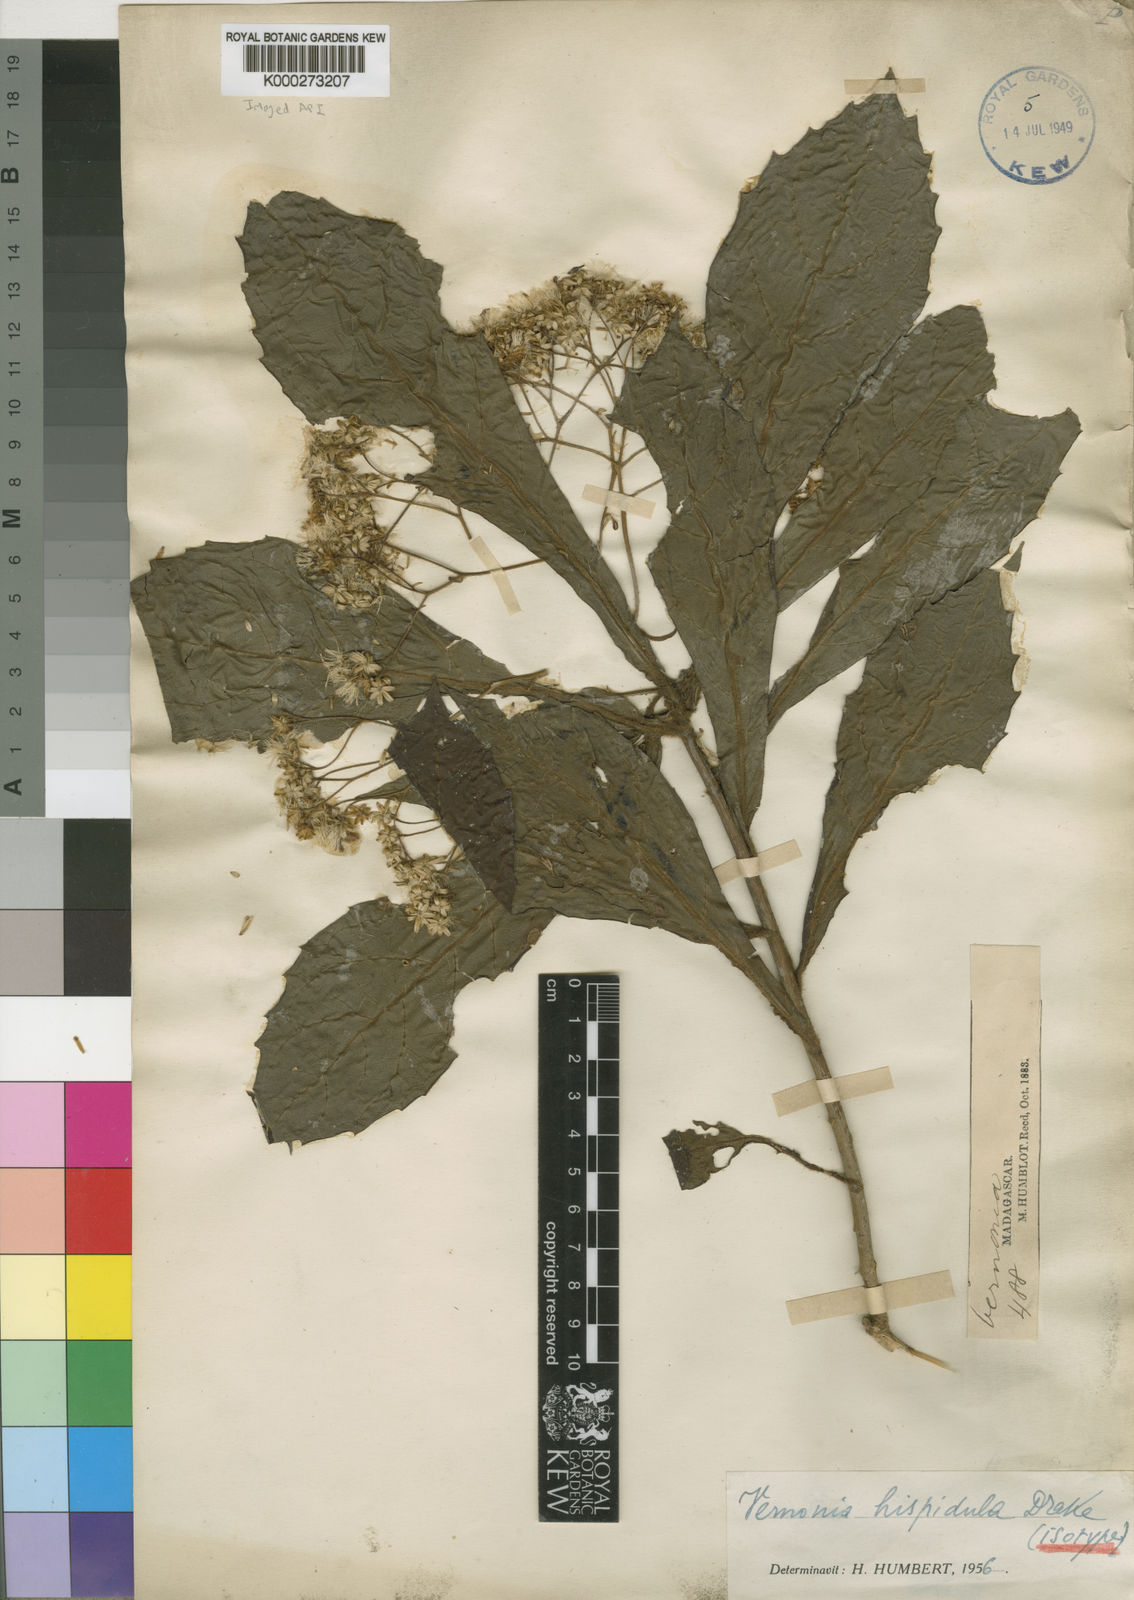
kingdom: Plantae
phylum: Tracheophyta
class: Magnoliopsida
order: Asterales
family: Asteraceae
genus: Vernonia
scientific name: Vernonia hispidula
